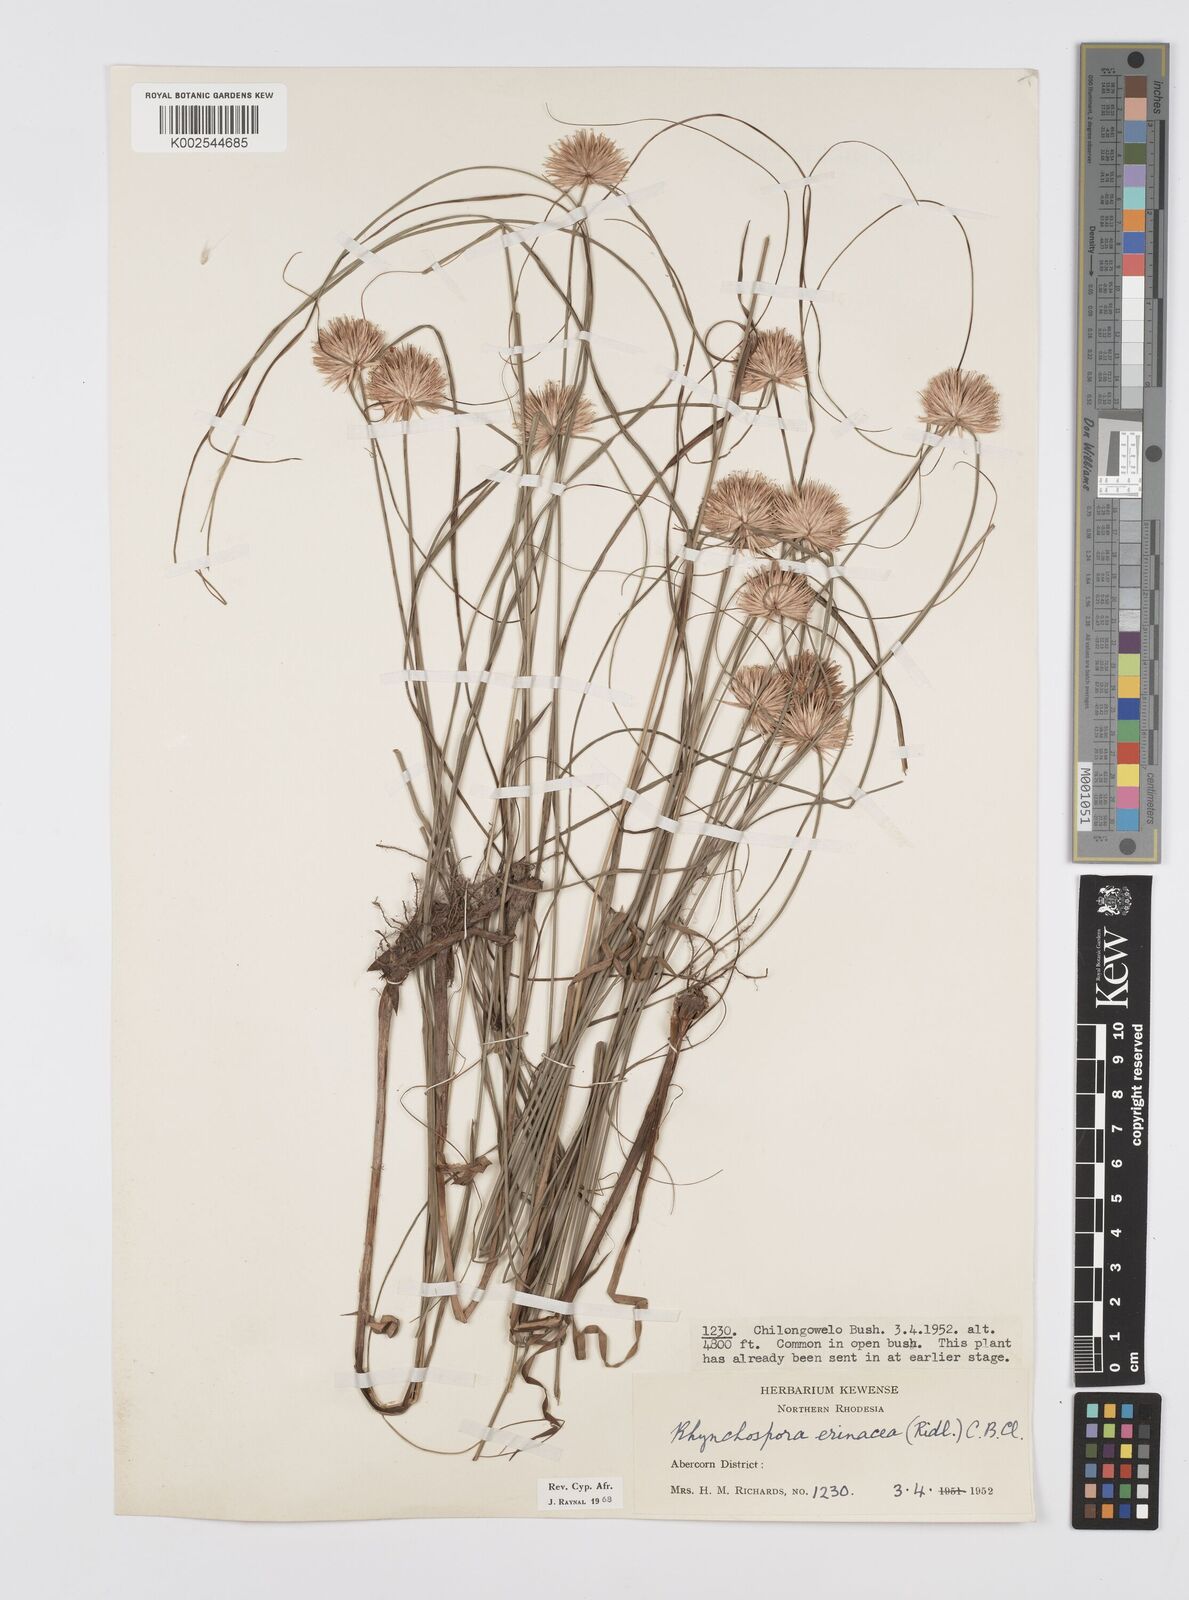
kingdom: Plantae
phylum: Tracheophyta
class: Liliopsida
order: Poales
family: Cyperaceae
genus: Cyperus
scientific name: Cyperus erinaceus
